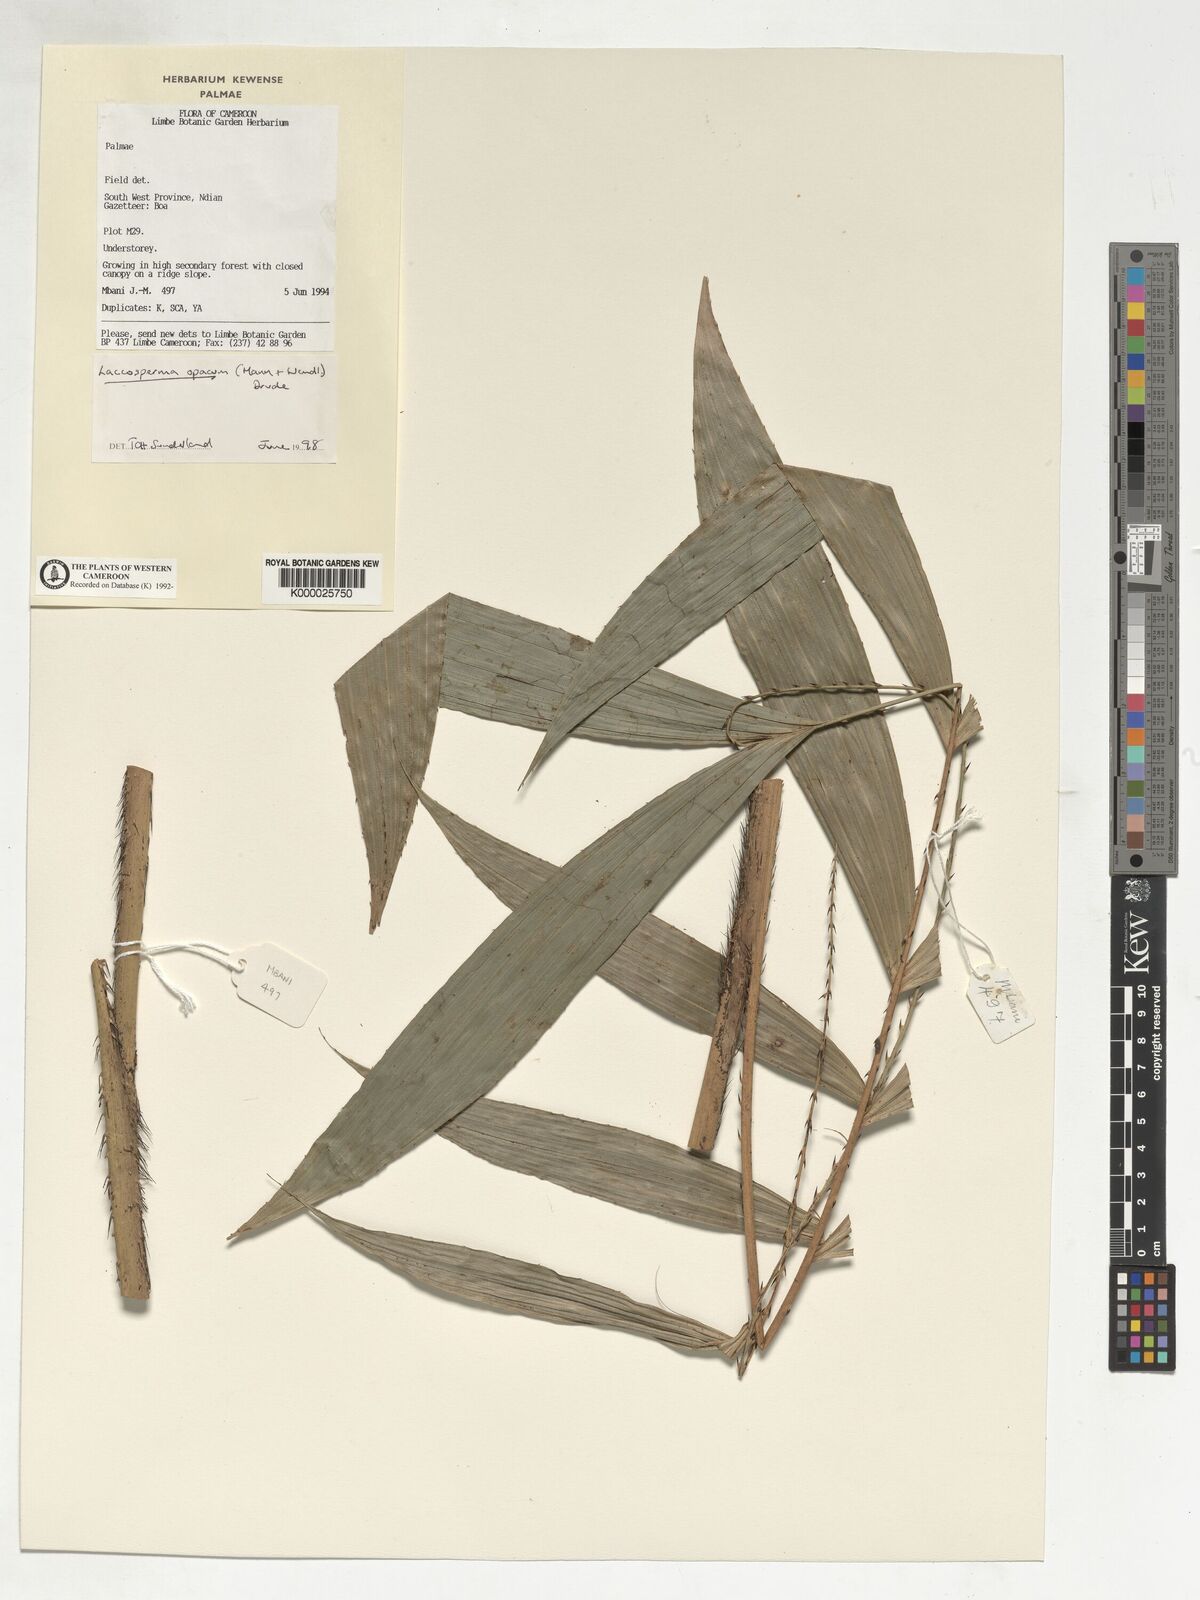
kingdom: Plantae
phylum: Tracheophyta
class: Liliopsida
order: Arecales
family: Arecaceae
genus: Laccosperma
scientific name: Laccosperma opacum
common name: Rattan
